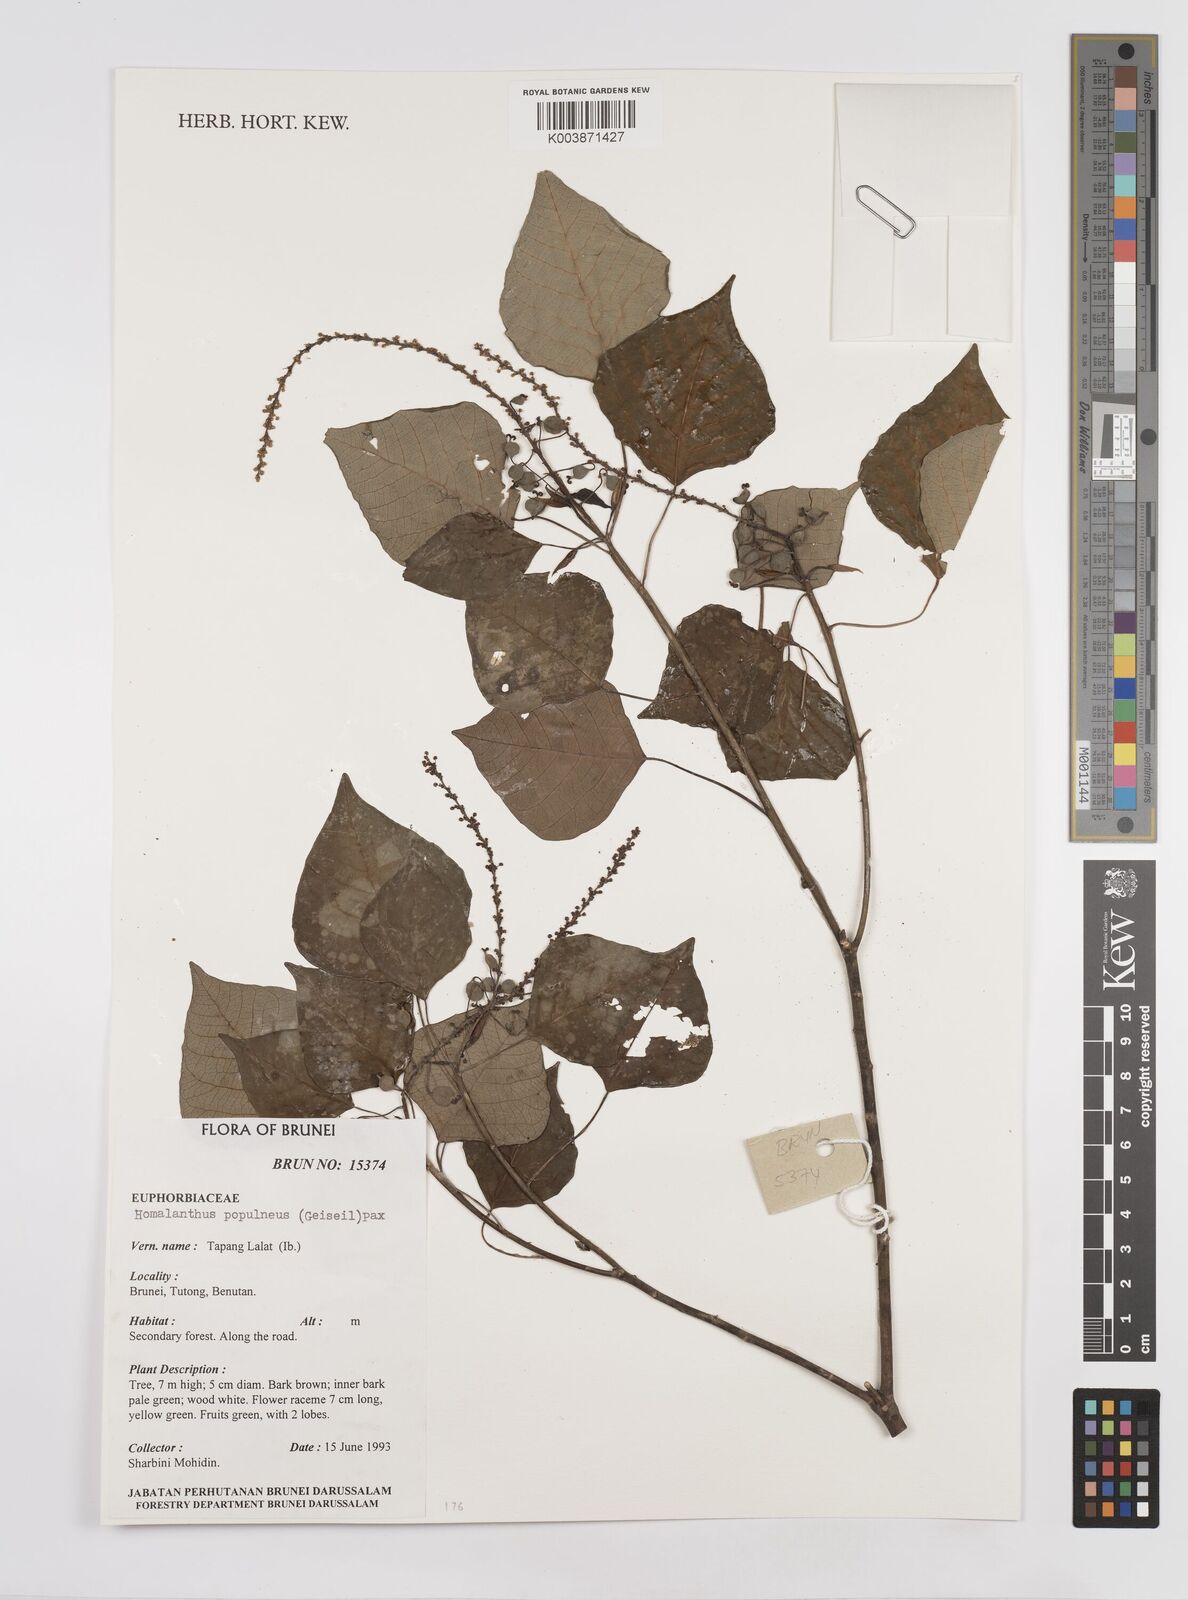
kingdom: Plantae
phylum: Tracheophyta
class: Magnoliopsida
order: Malpighiales
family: Euphorbiaceae
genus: Homalanthus
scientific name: Homalanthus populneus
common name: Spurge
